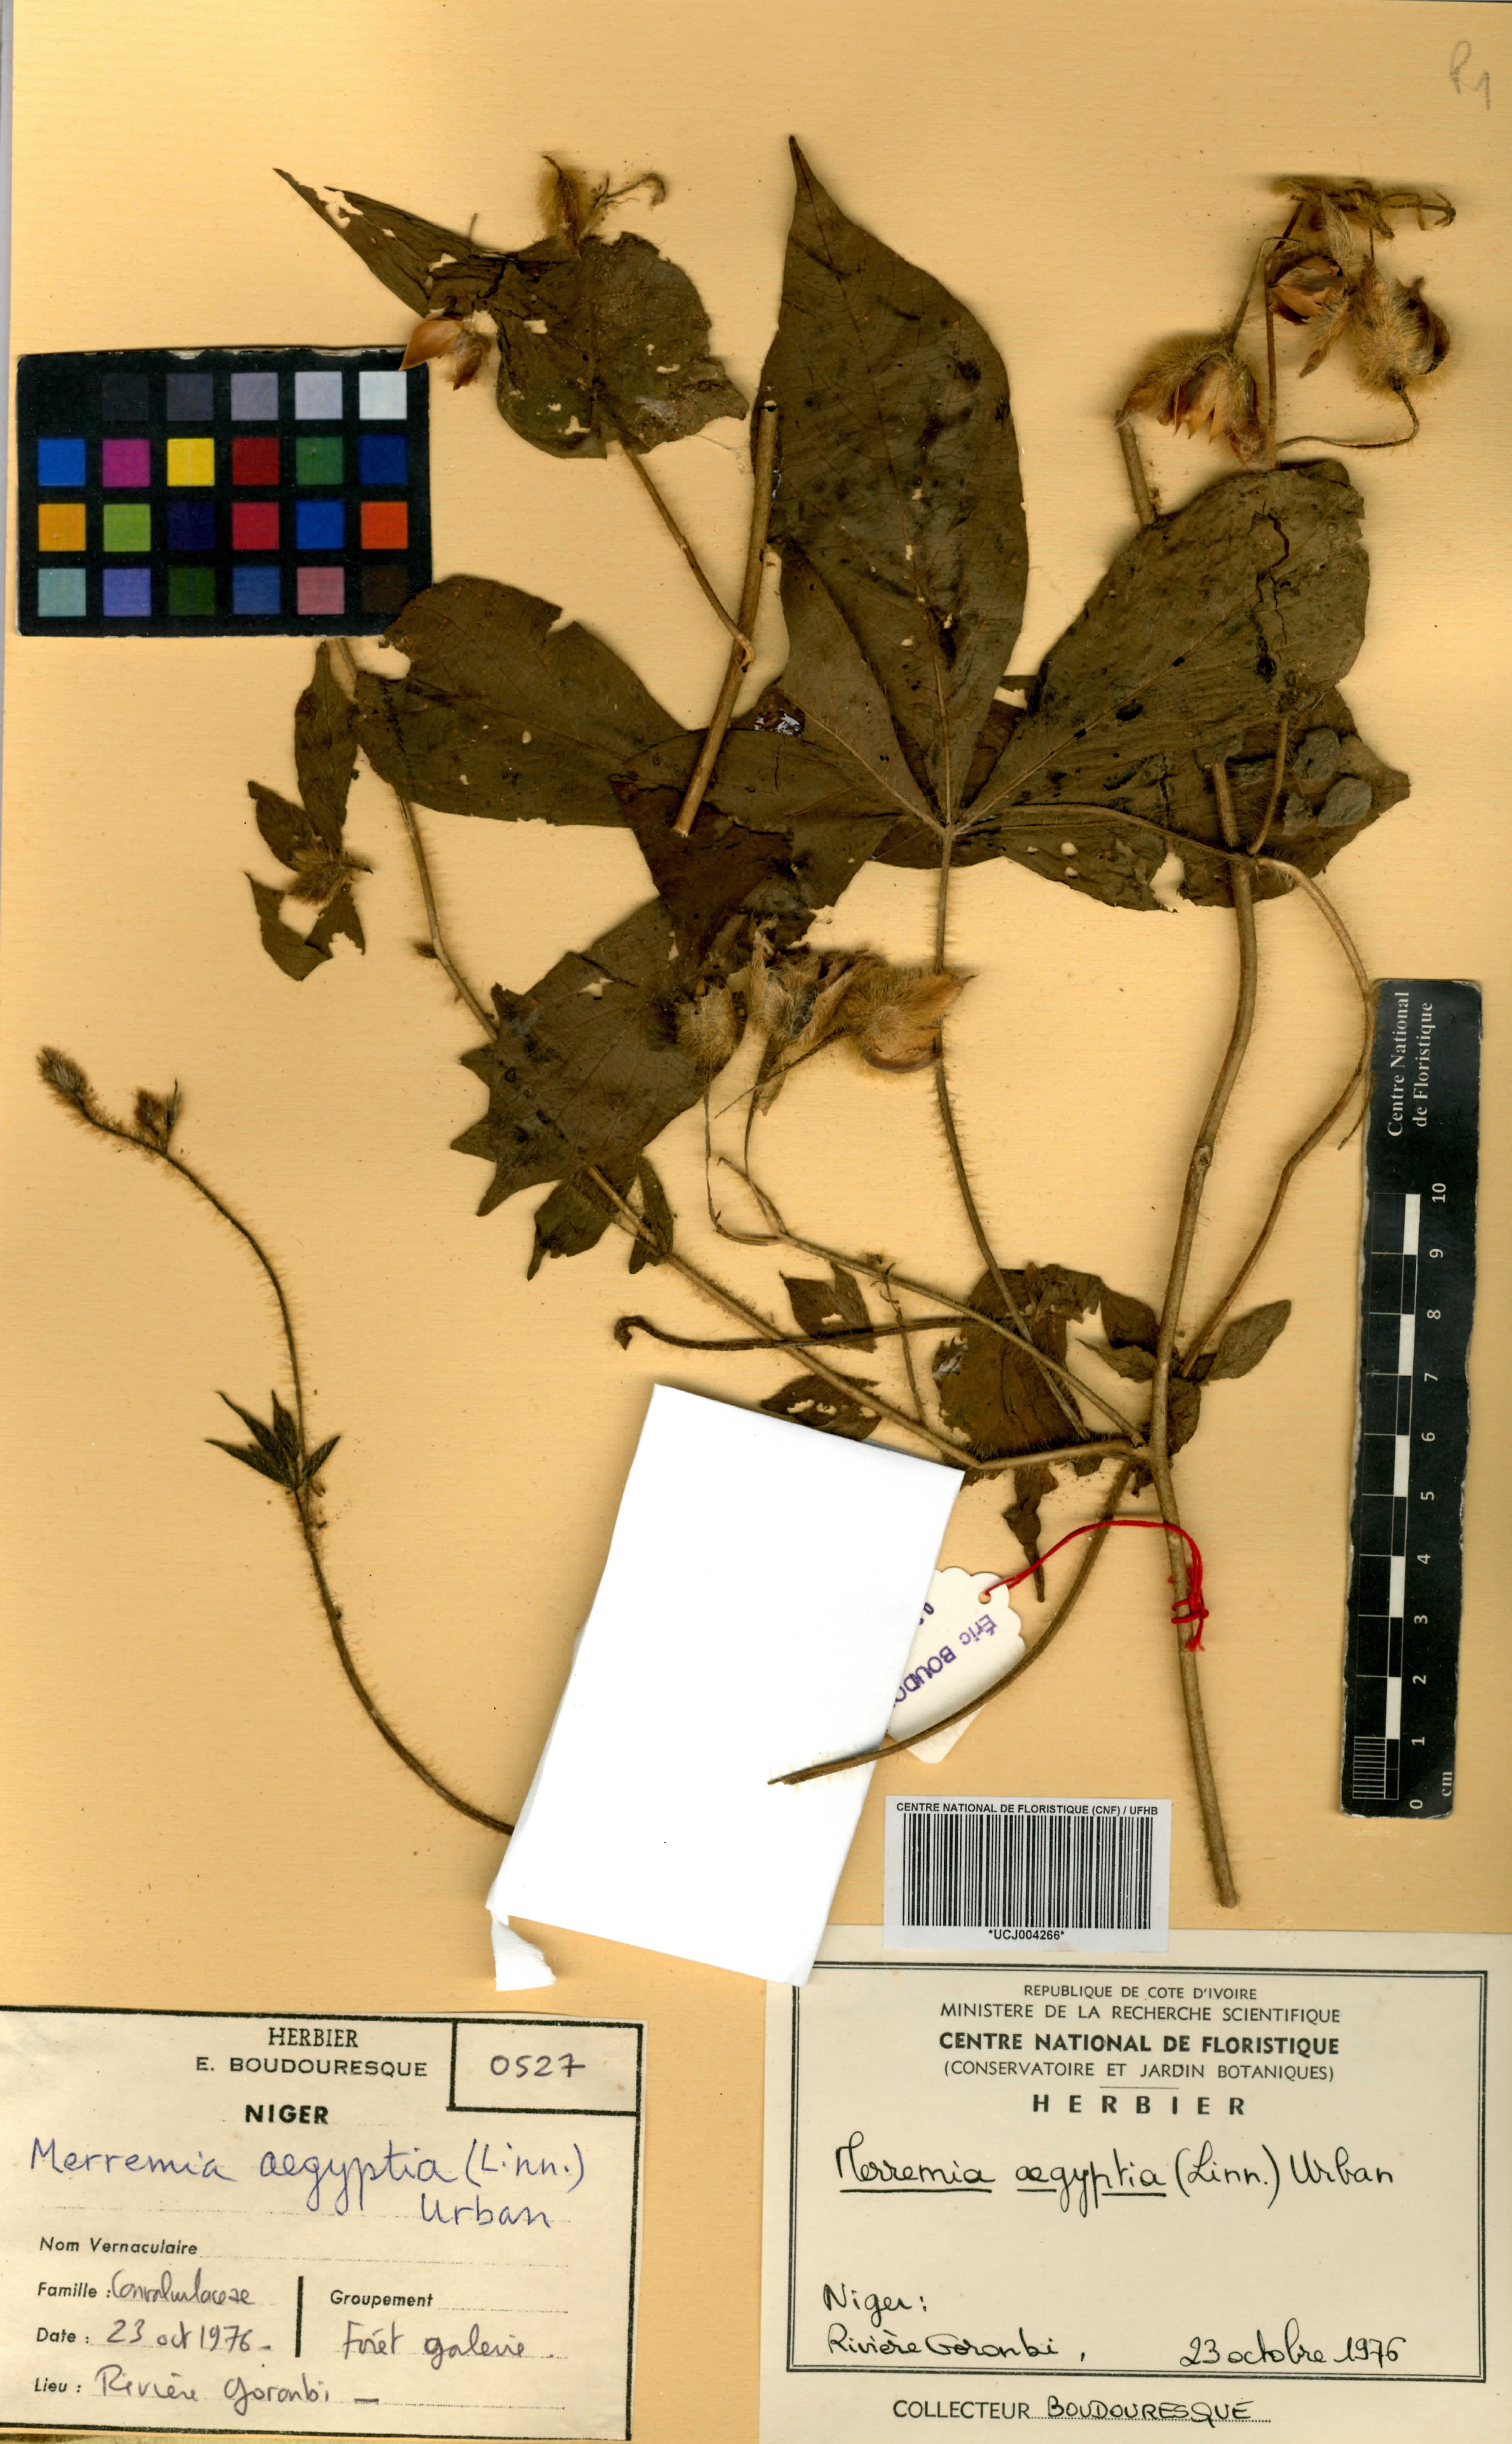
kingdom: Plantae
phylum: Tracheophyta
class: Magnoliopsida
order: Solanales
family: Convolvulaceae
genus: Distimake
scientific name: Distimake aegyptius
